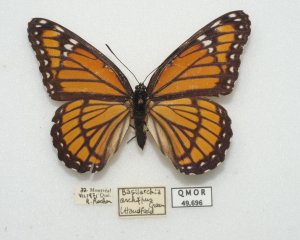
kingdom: Animalia
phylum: Arthropoda
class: Insecta
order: Lepidoptera
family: Nymphalidae
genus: Limenitis
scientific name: Limenitis archippus
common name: Viceroy
